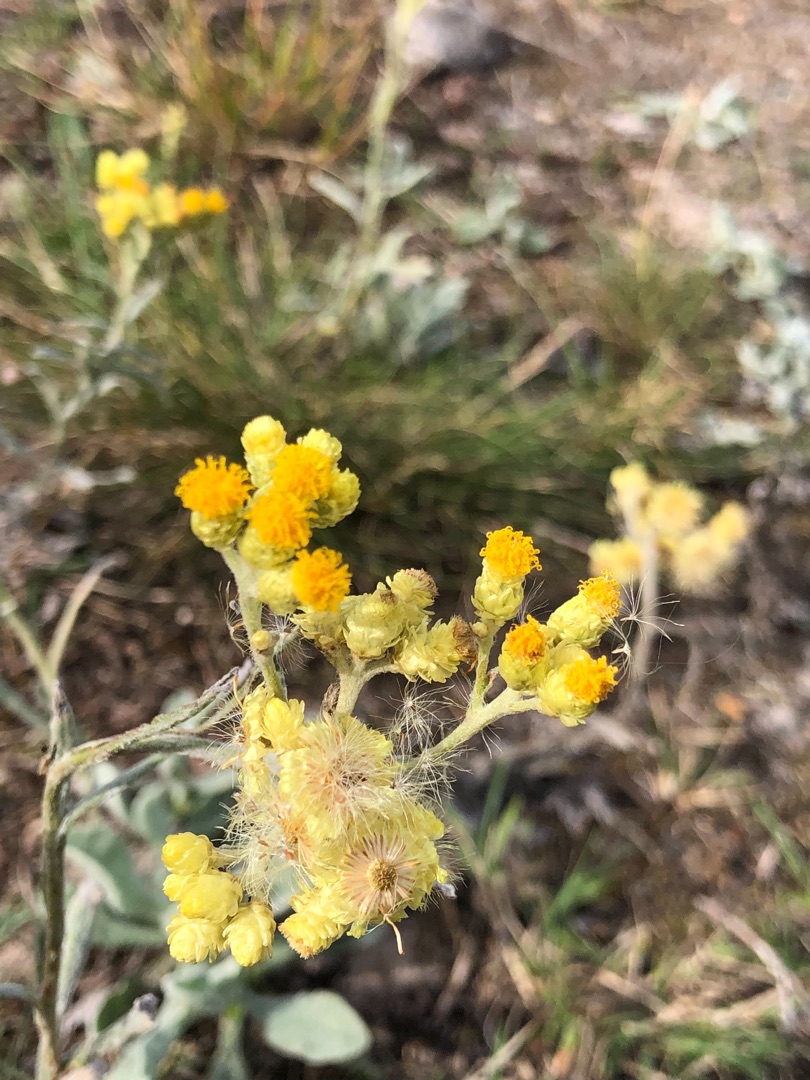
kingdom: Plantae
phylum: Tracheophyta
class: Magnoliopsida
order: Asterales
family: Asteraceae
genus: Helichrysum
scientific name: Helichrysum arenarium
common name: Gul evighedsblomst
